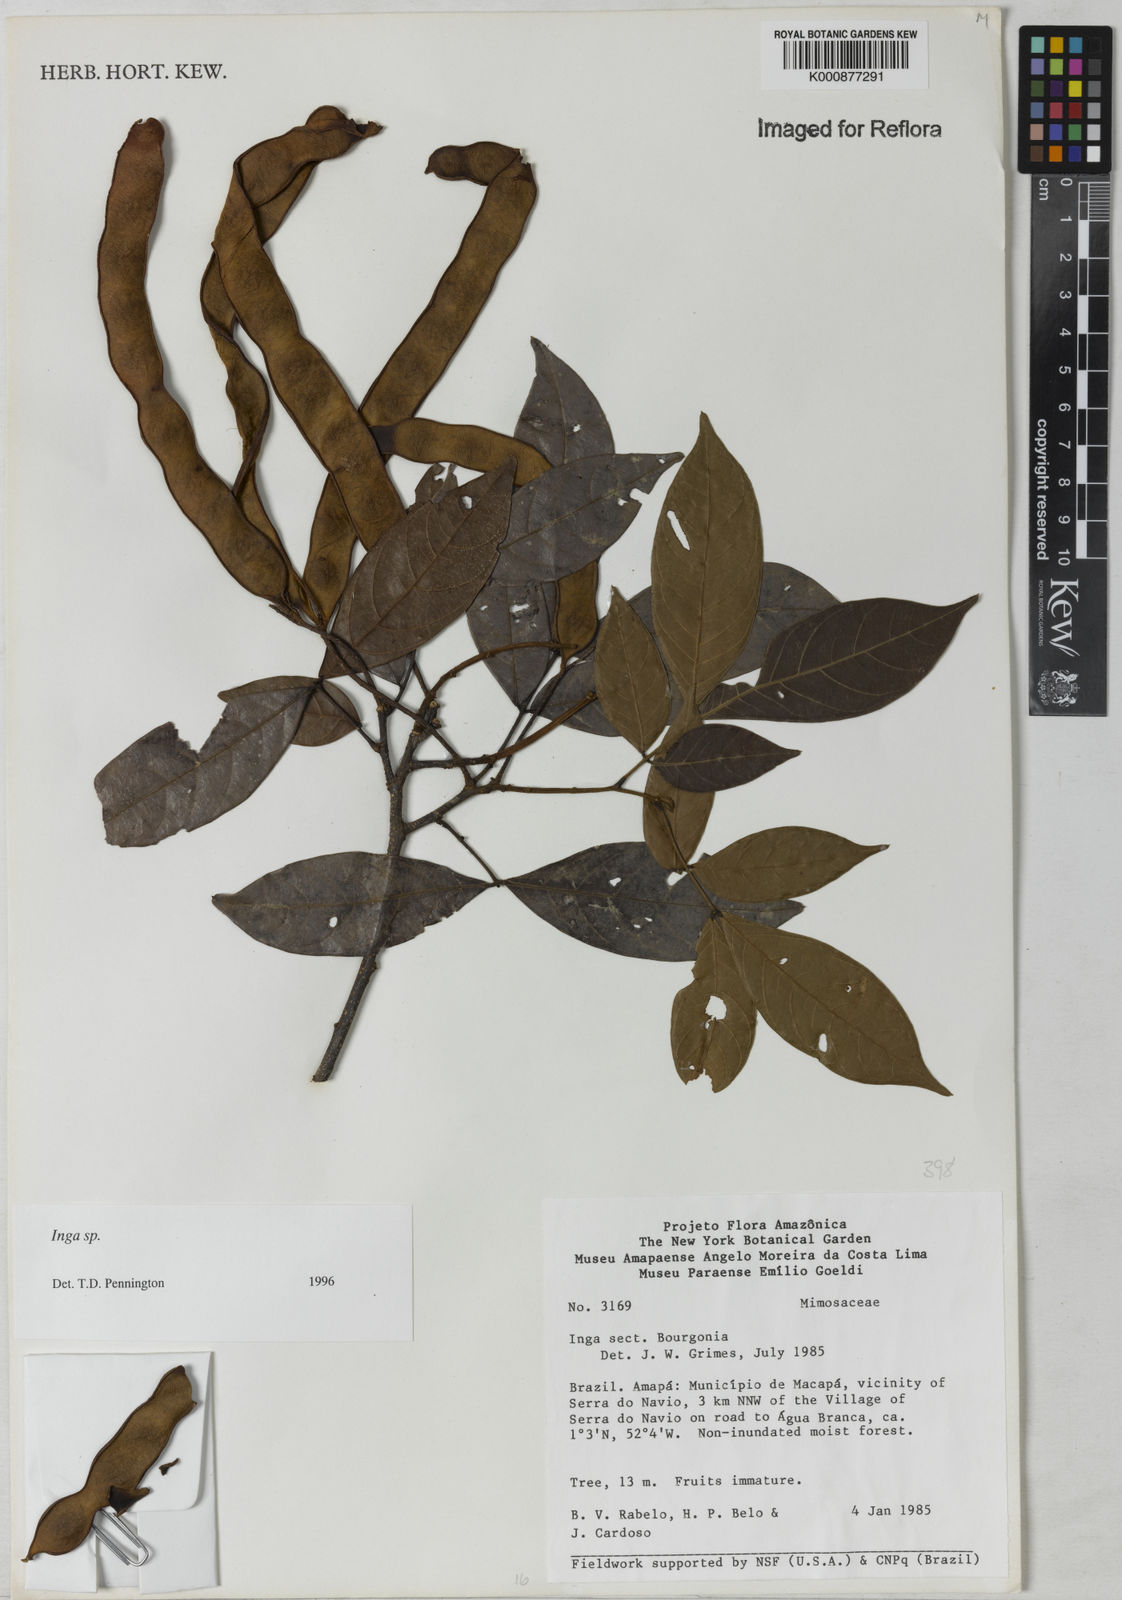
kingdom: Plantae
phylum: Tracheophyta
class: Magnoliopsida
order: Fabales
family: Fabaceae
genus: Inga
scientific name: Inga
